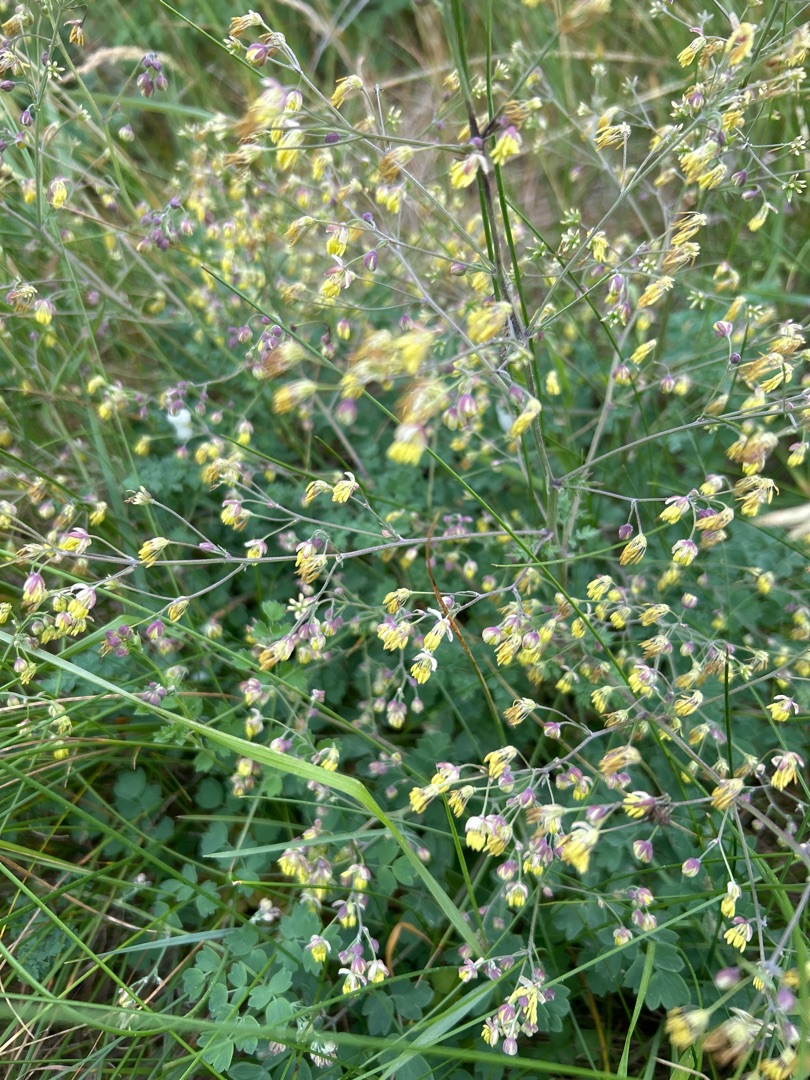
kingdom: Plantae
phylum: Tracheophyta
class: Magnoliopsida
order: Ranunculales
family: Ranunculaceae
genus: Thalictrum
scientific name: Thalictrum minus
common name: Liden frøstjerne
